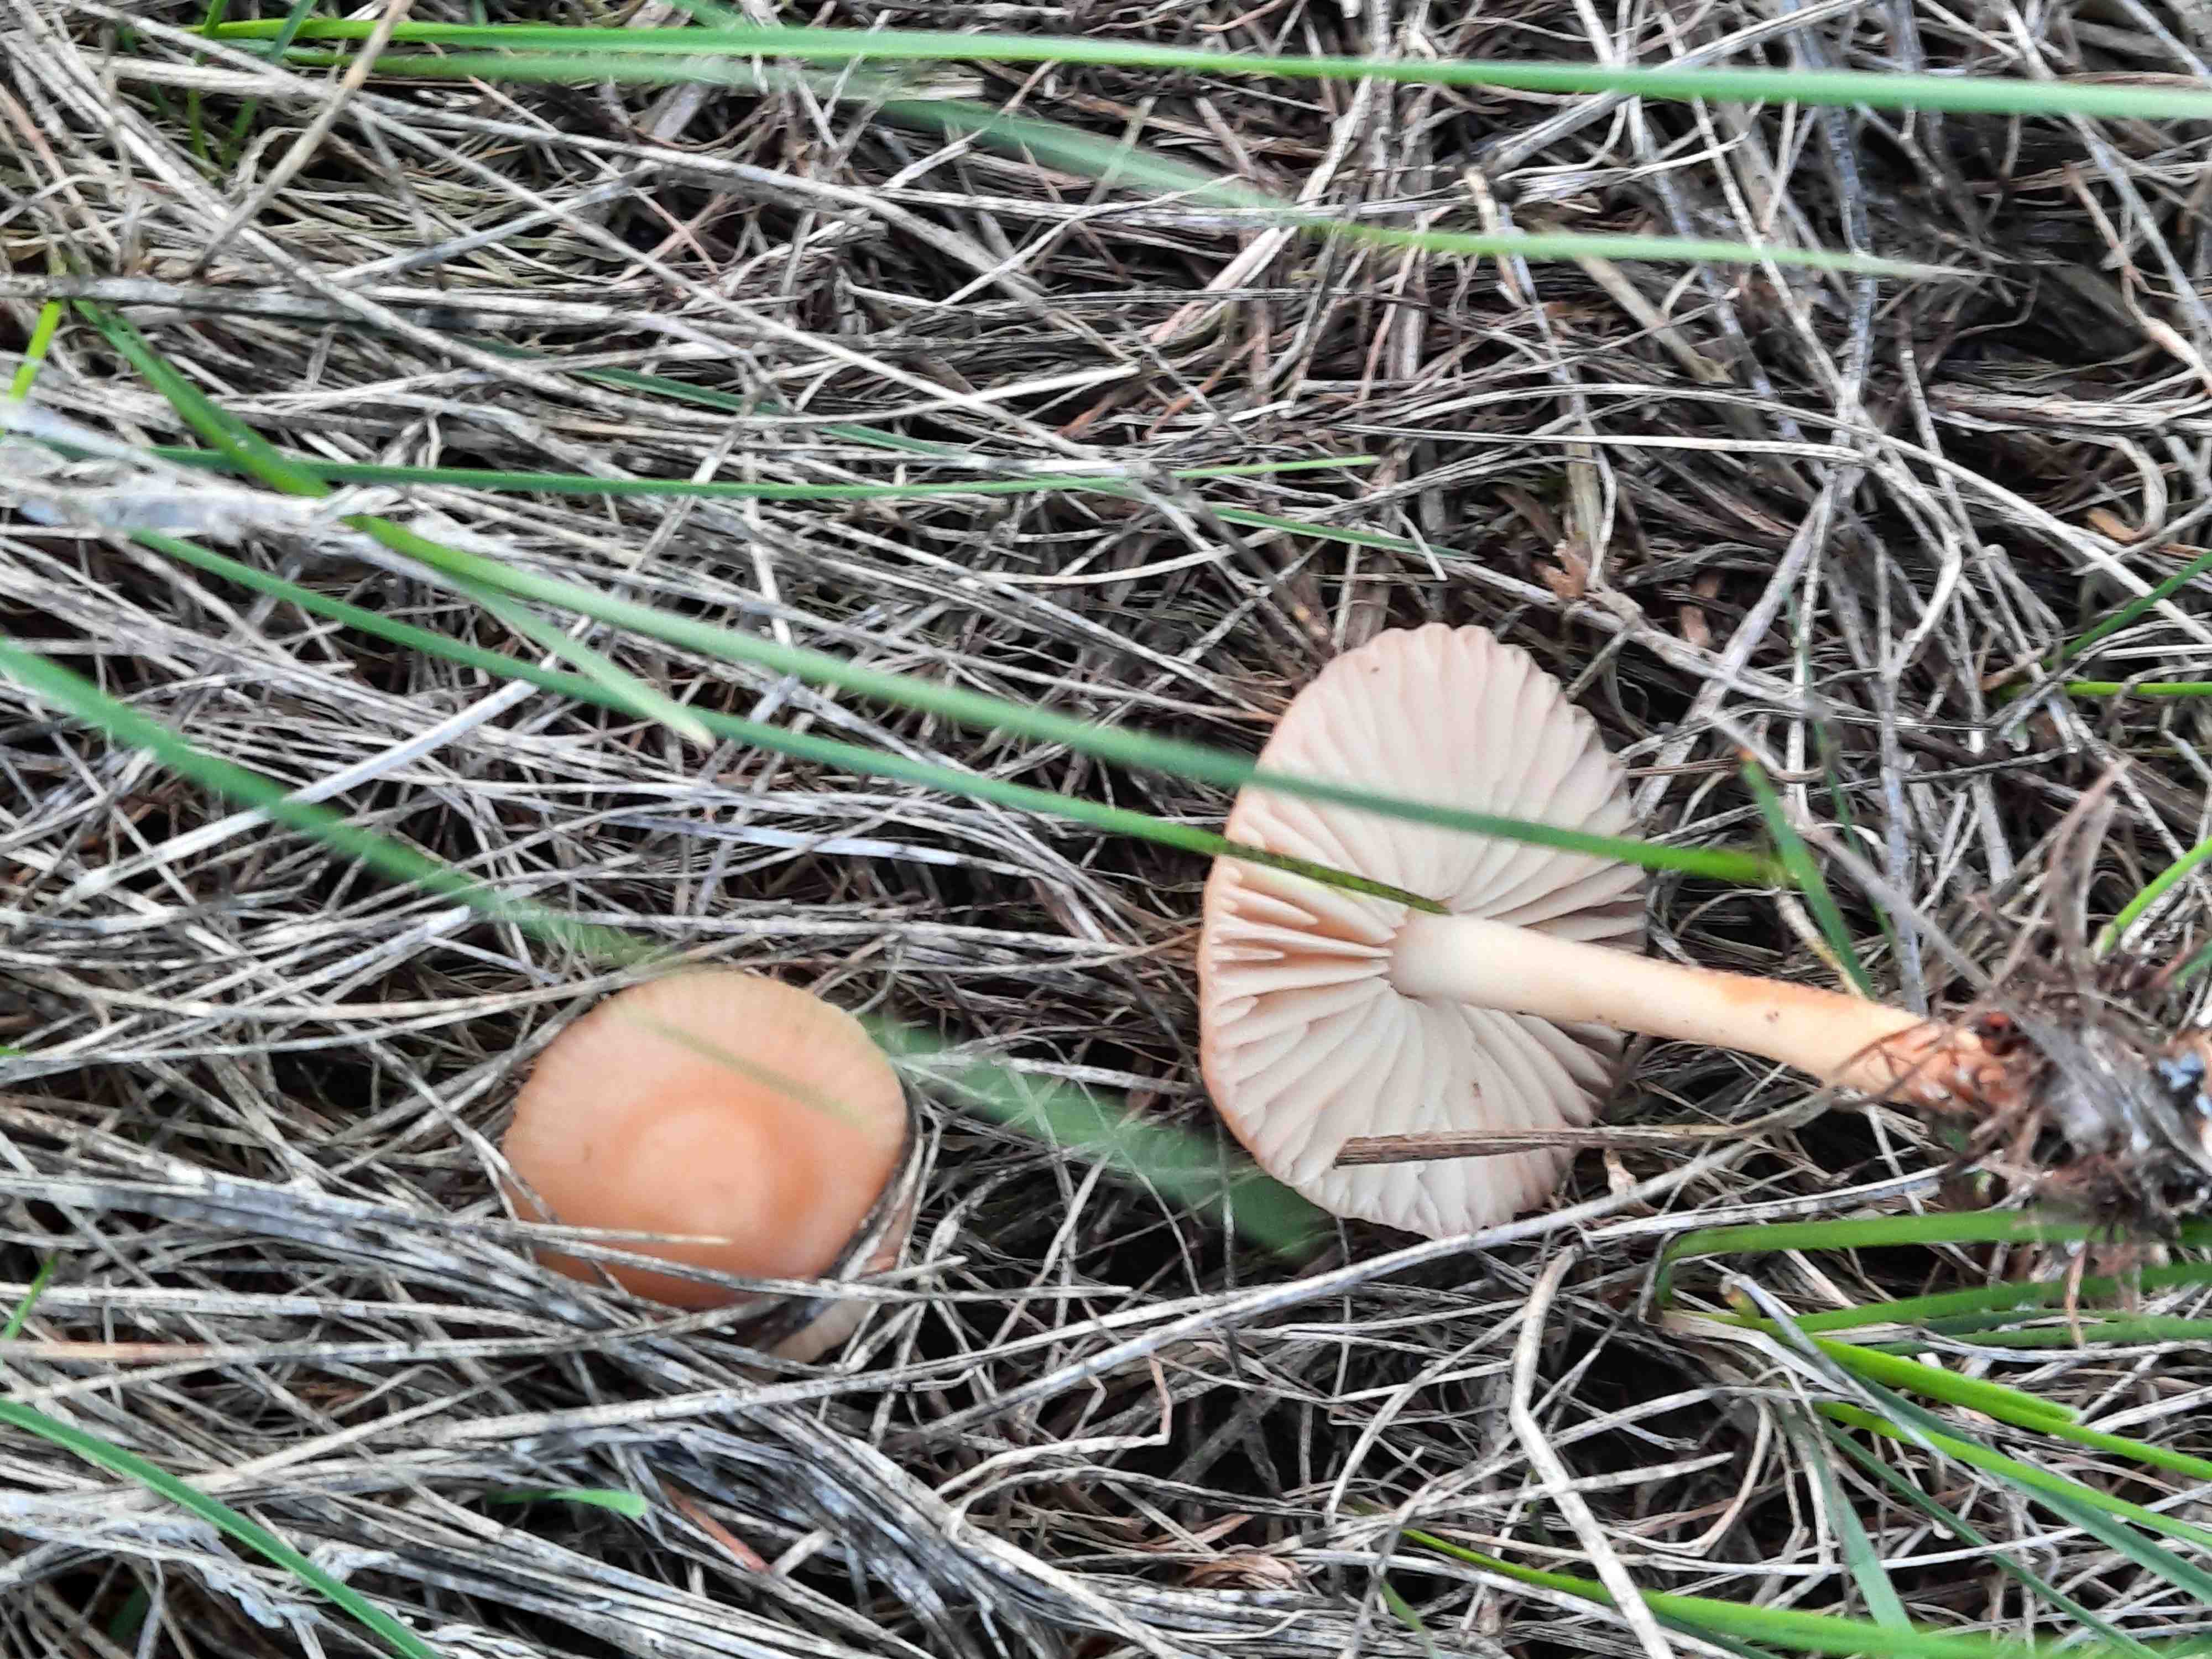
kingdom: Fungi
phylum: Basidiomycota
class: Agaricomycetes
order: Agaricales
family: Marasmiaceae
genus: Marasmius
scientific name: Marasmius oreades
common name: elledans-bruskhat
